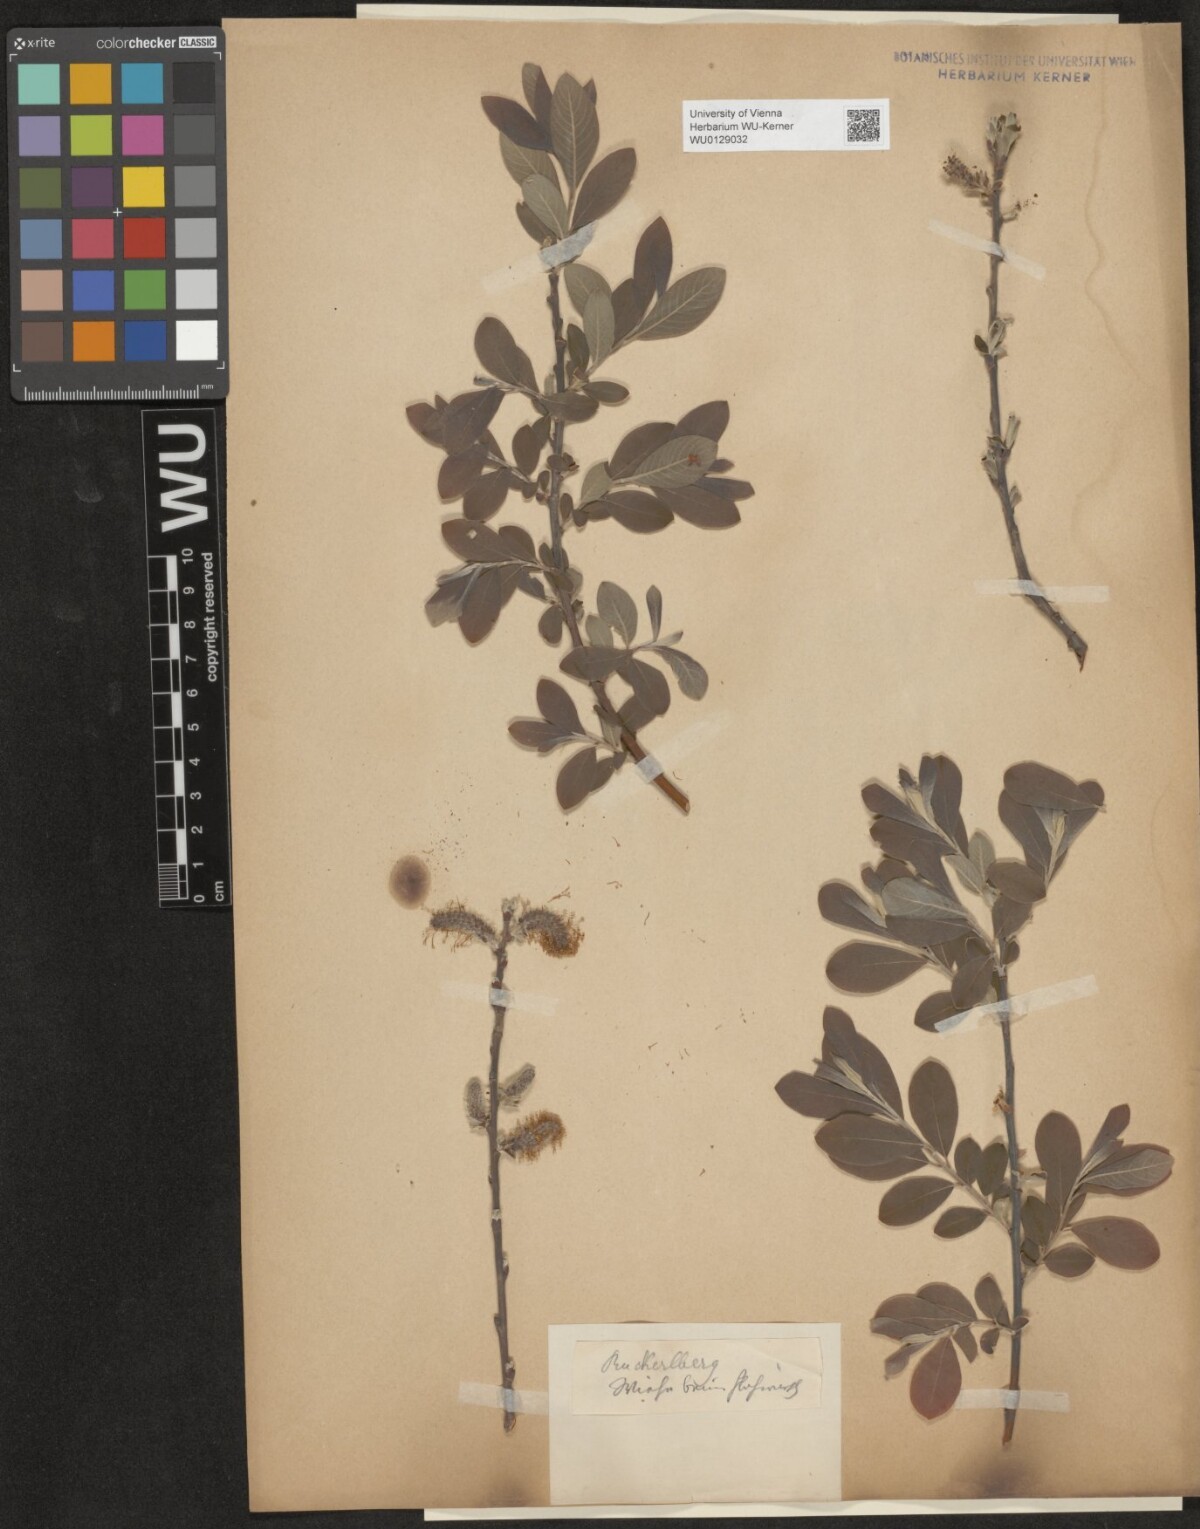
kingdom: Plantae
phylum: Tracheophyta
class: Magnoliopsida
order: Malpighiales
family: Salicaceae
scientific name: Salicaceae
